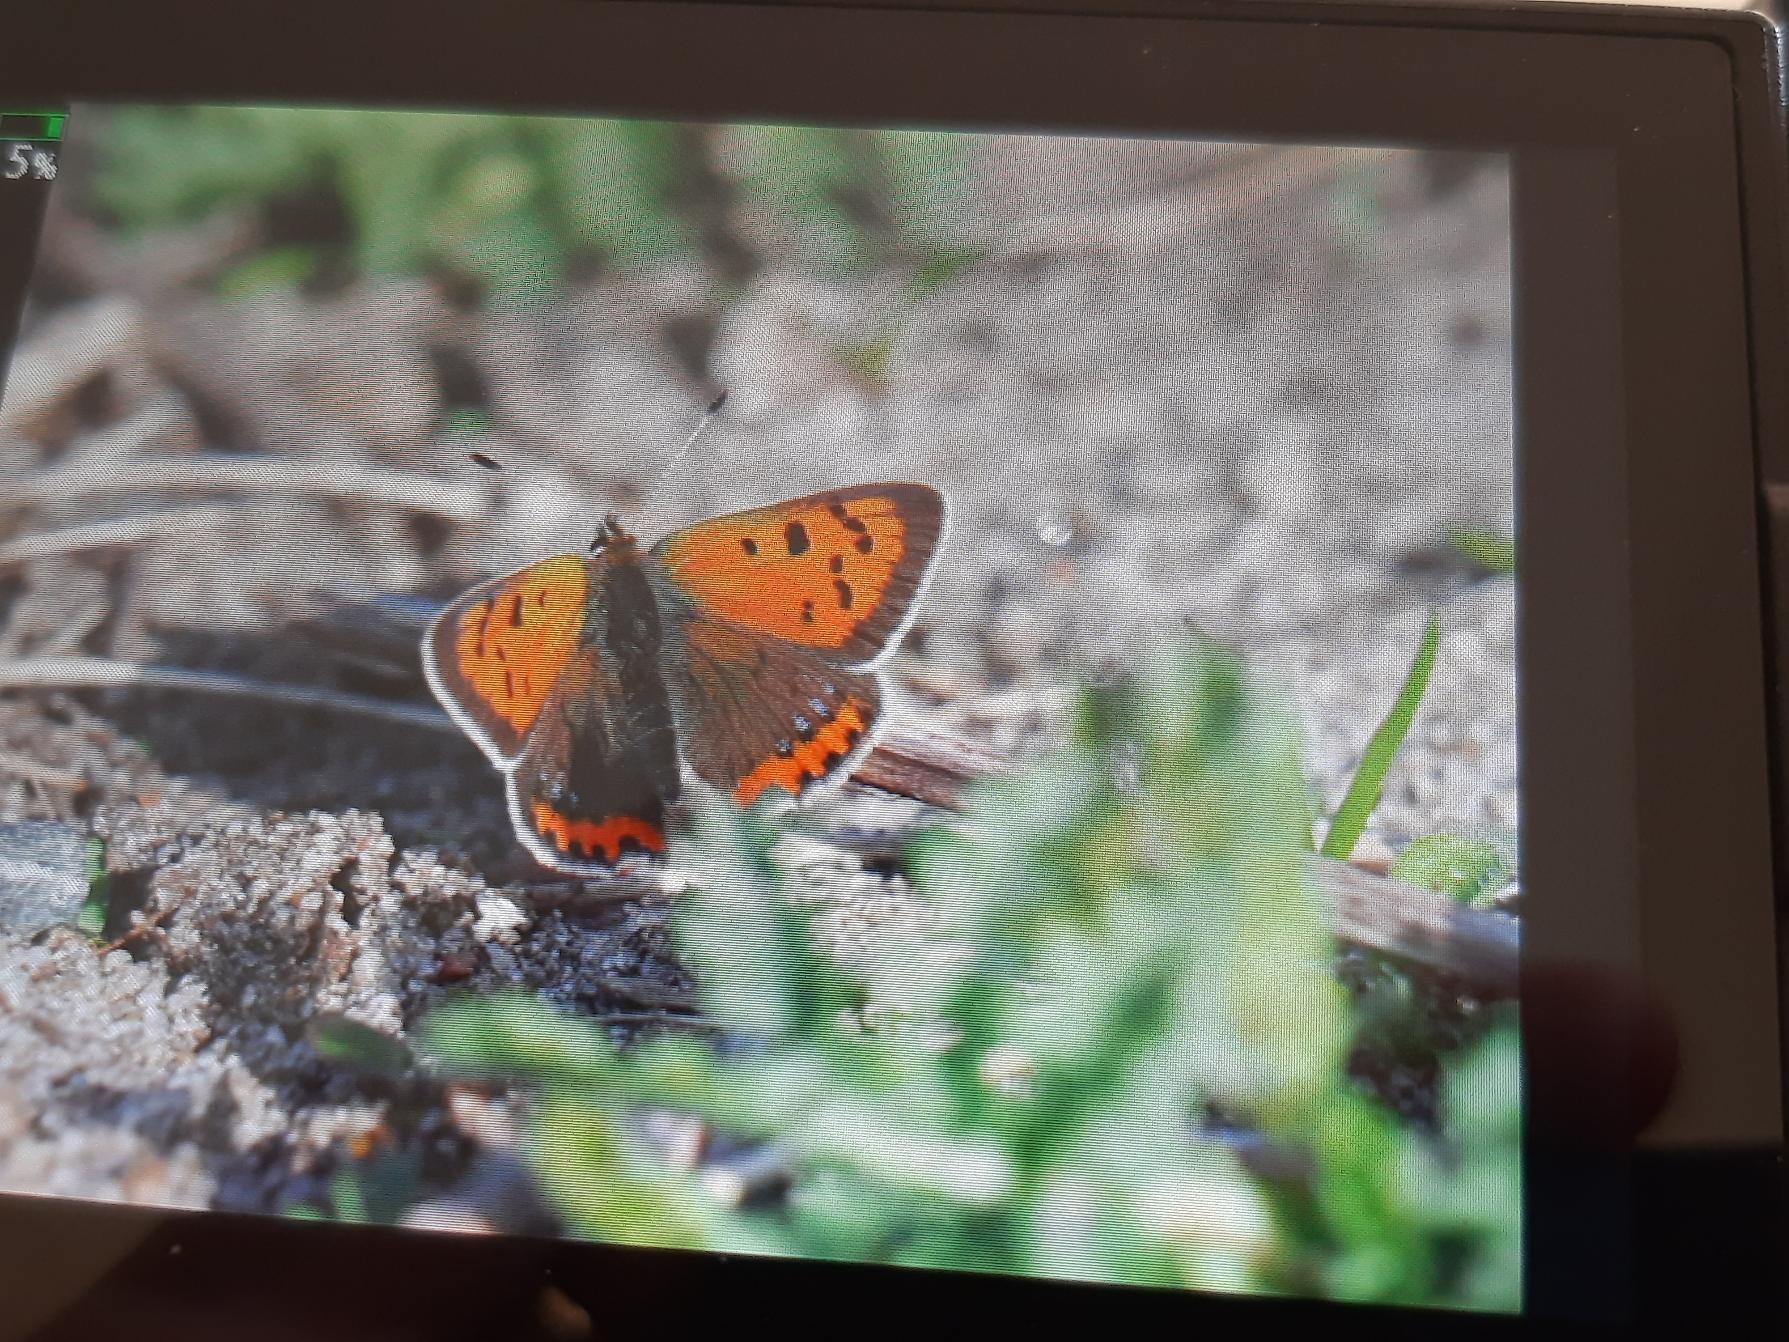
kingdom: Animalia
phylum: Arthropoda
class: Insecta
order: Lepidoptera
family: Lycaenidae
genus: Lycaena
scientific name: Lycaena phlaeas
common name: Lille ildfugl
